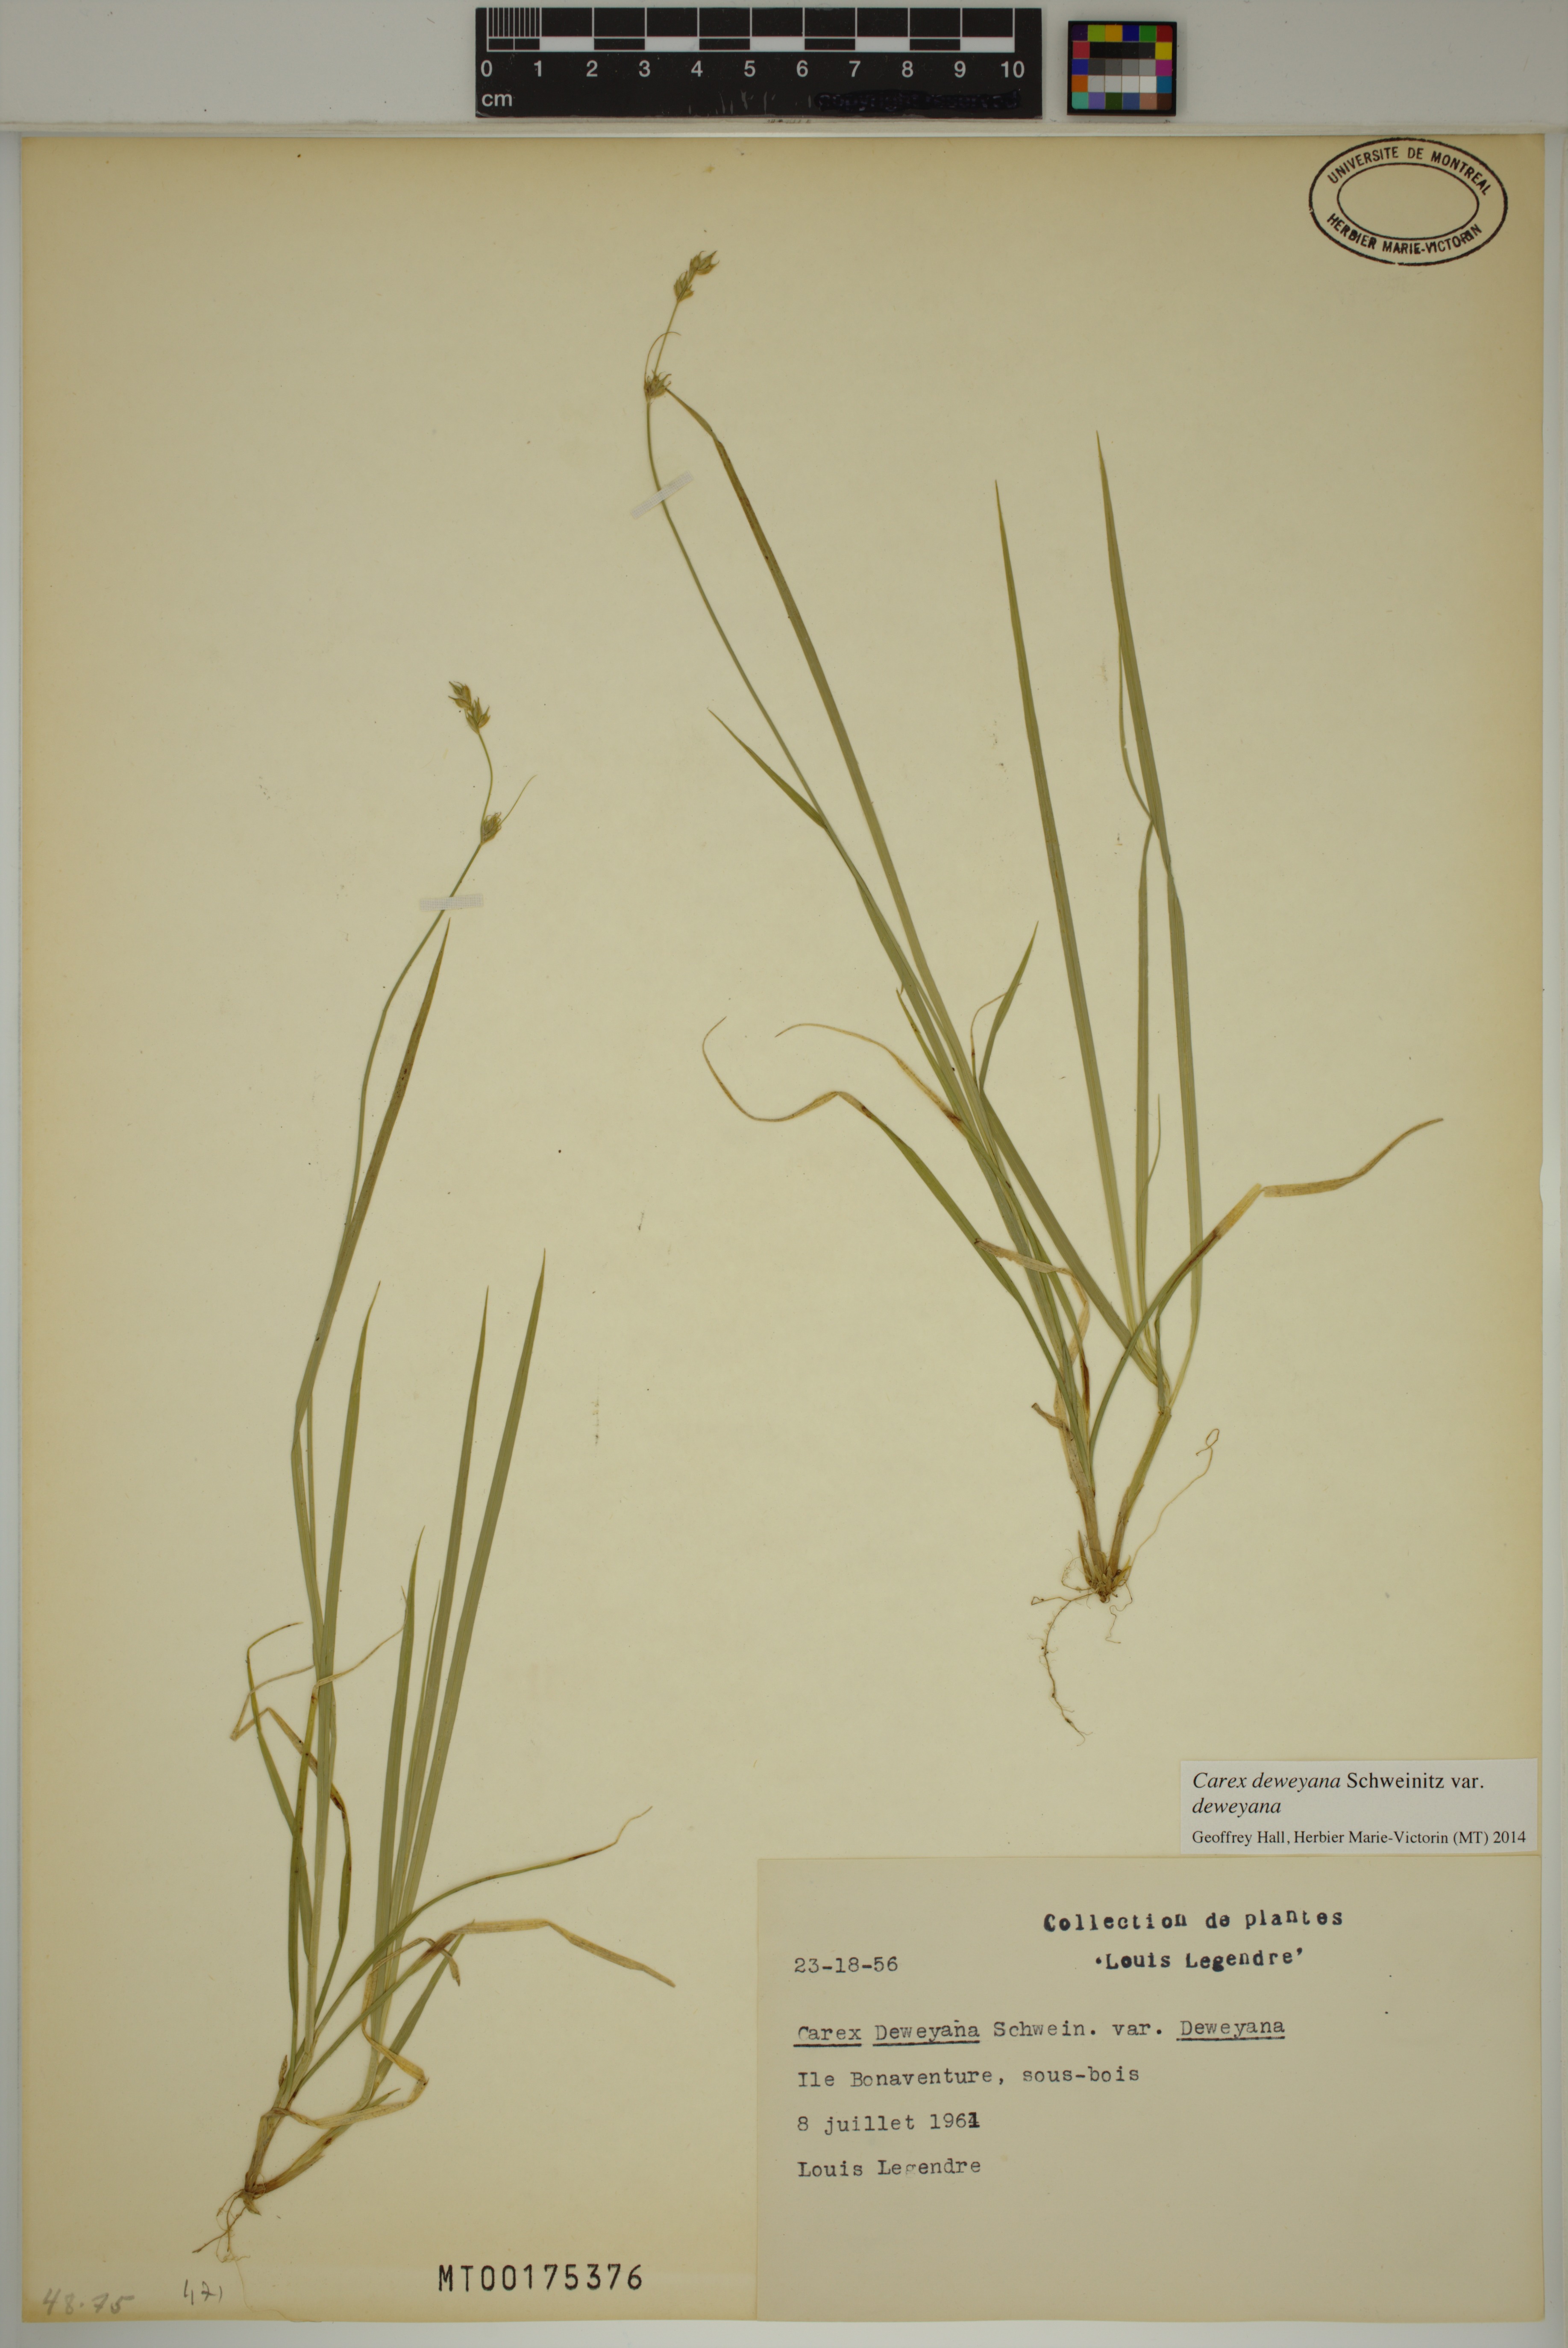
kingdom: Plantae
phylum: Tracheophyta
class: Liliopsida
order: Poales
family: Cyperaceae
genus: Carex
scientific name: Carex deweyana
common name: Dewey's sedge
